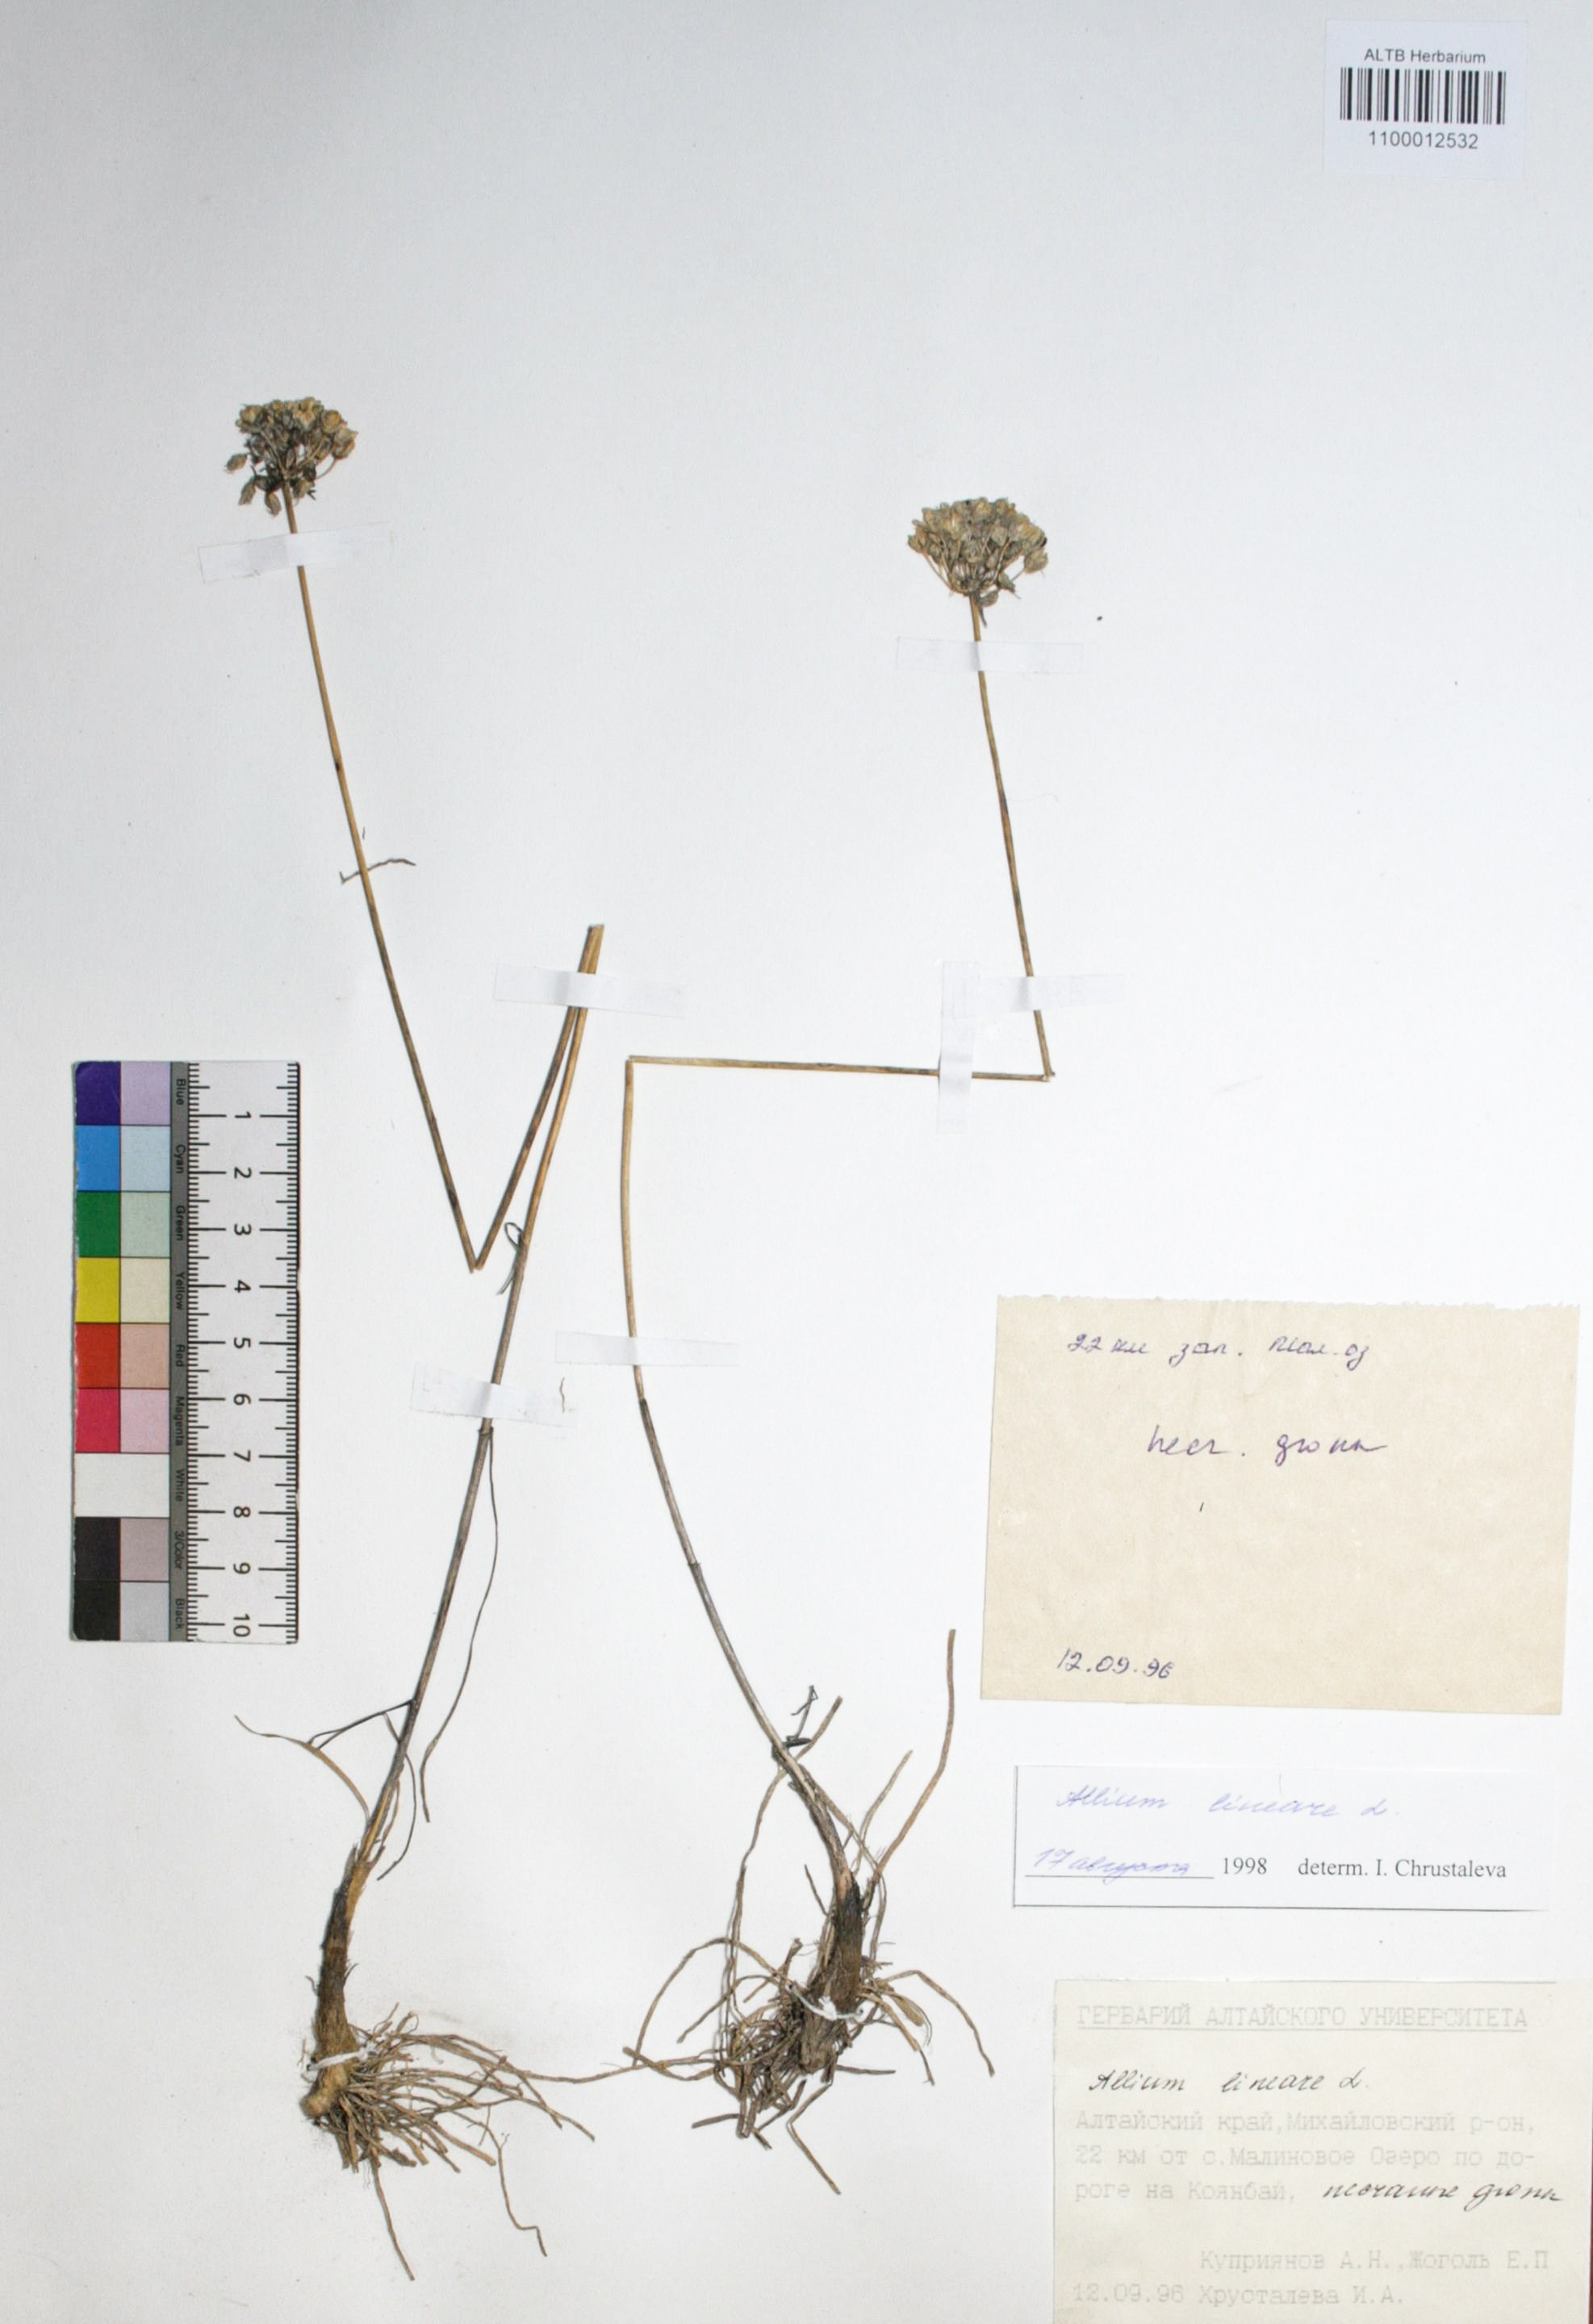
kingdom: Plantae
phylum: Tracheophyta
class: Liliopsida
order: Asparagales
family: Amaryllidaceae
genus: Allium
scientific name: Allium lineare
